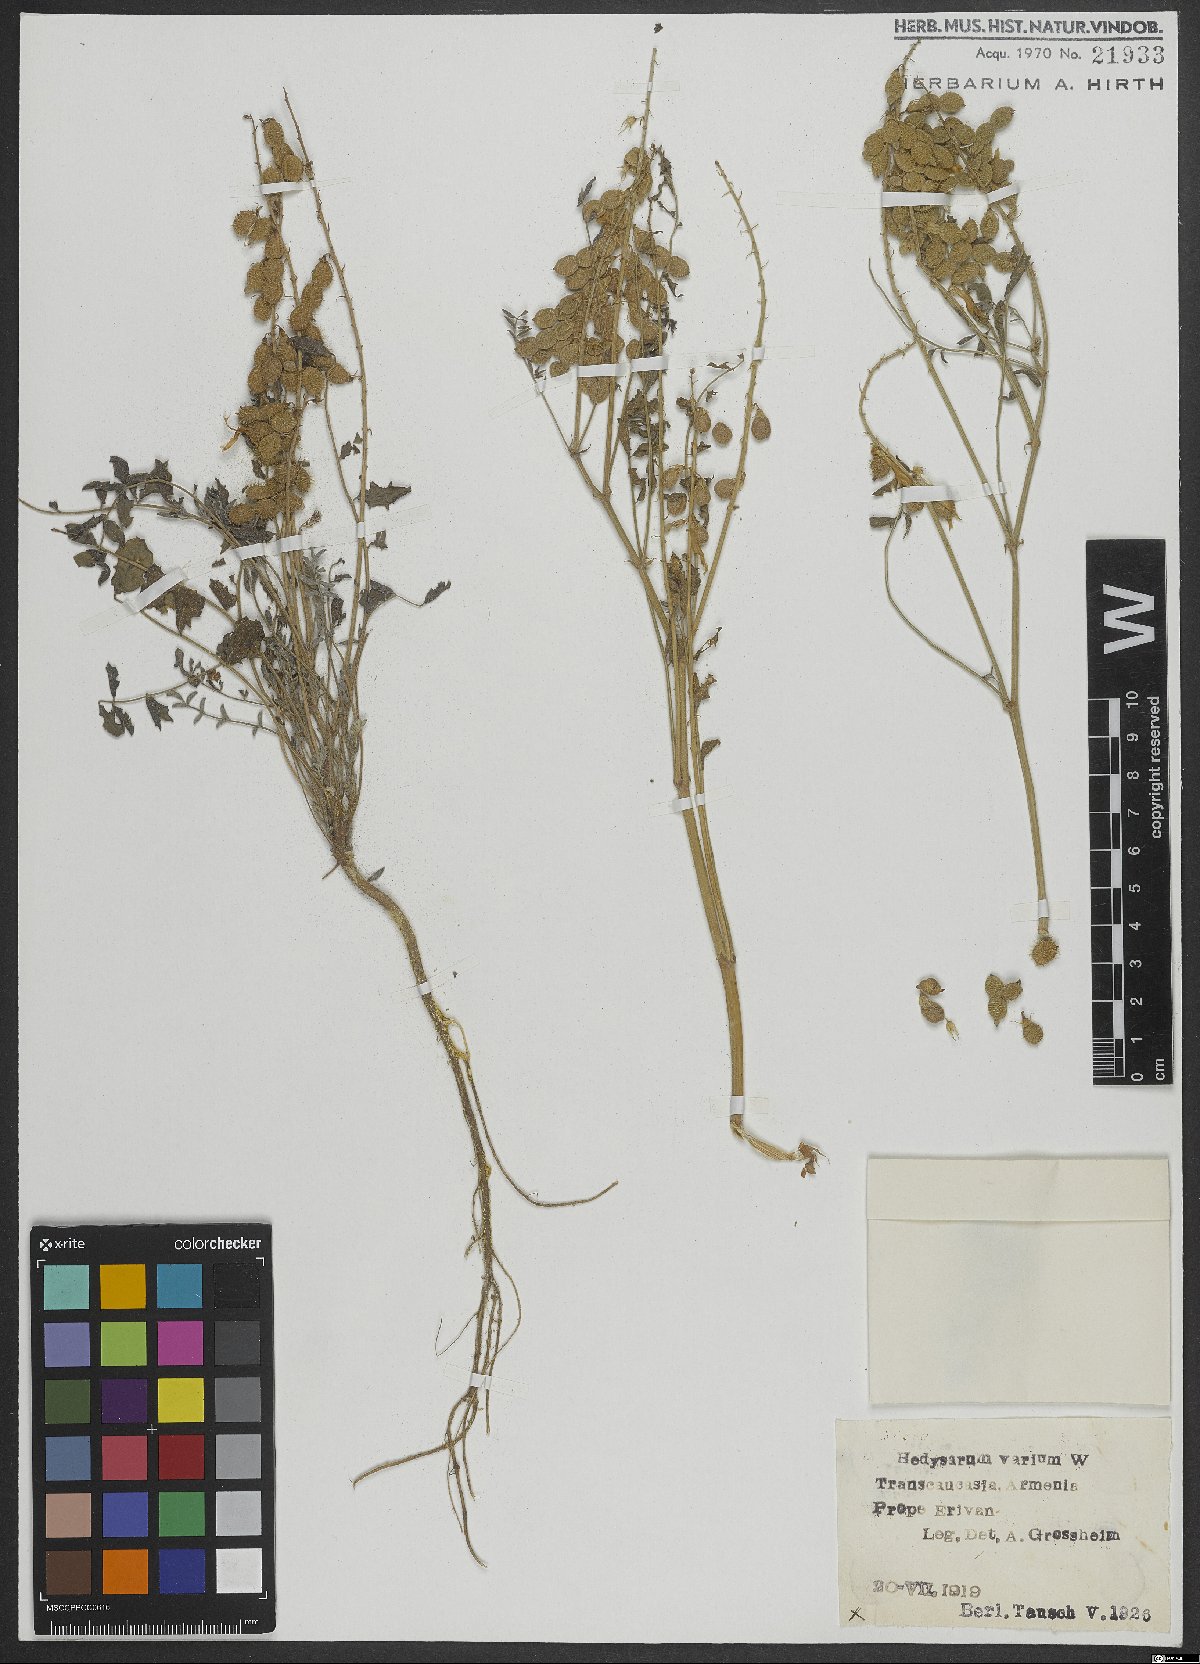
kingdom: Plantae
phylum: Tracheophyta
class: Magnoliopsida
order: Fabales
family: Fabaceae
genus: Hedysarum
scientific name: Hedysarum varium
